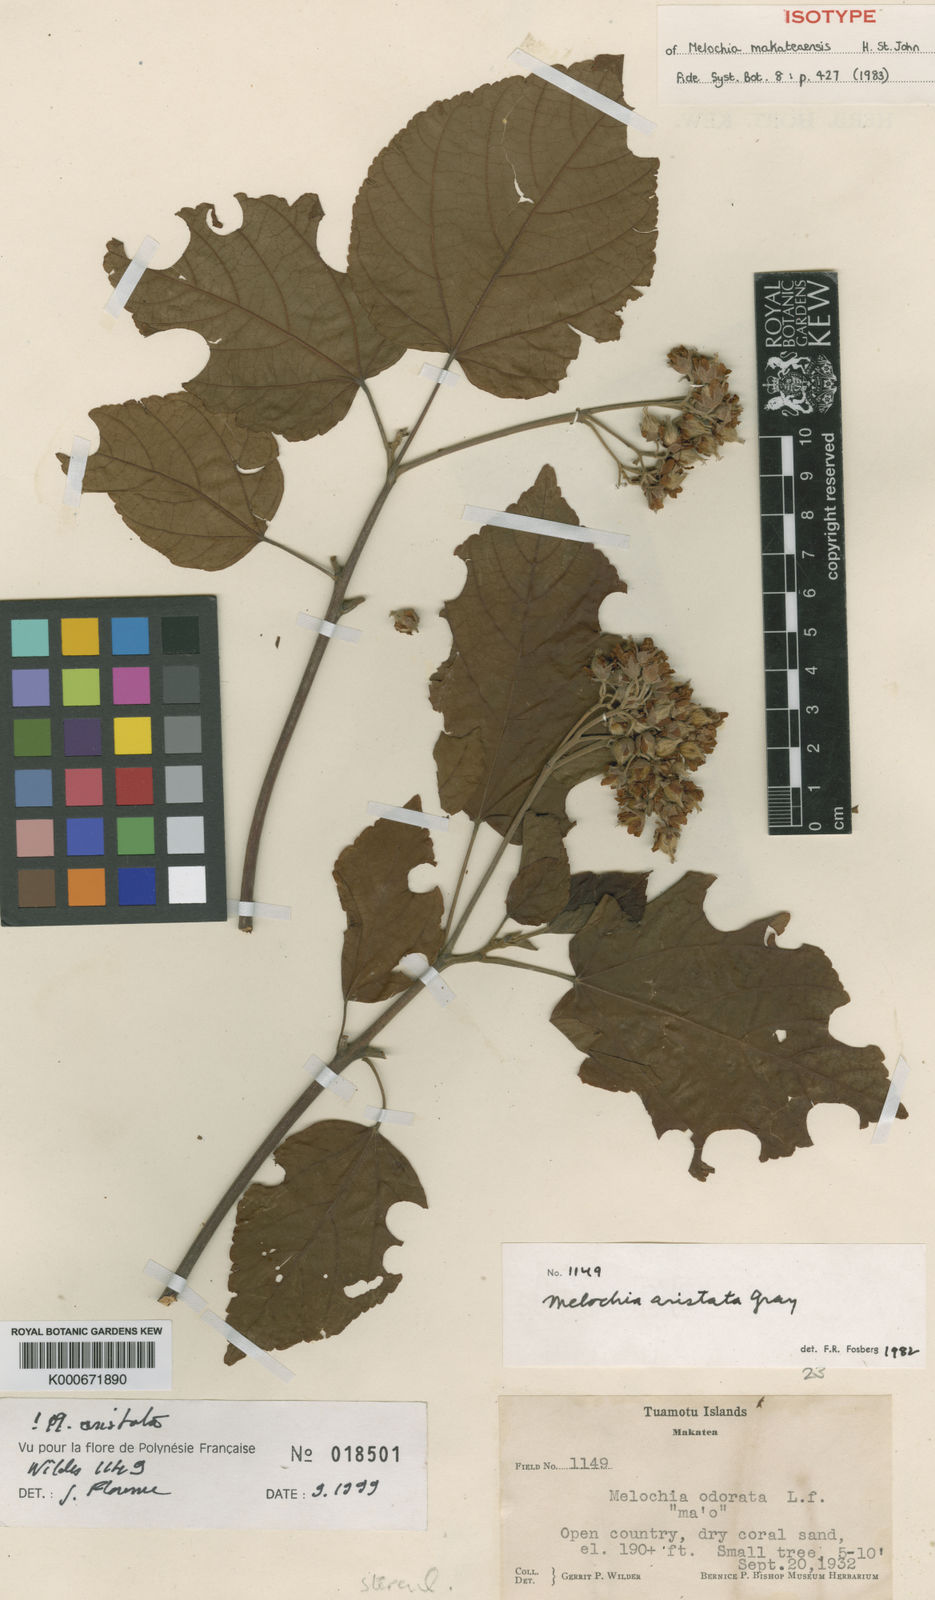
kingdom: Plantae
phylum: Tracheophyta
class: Magnoliopsida
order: Malvales
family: Malvaceae
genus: Melochia
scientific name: Melochia makateaensis
